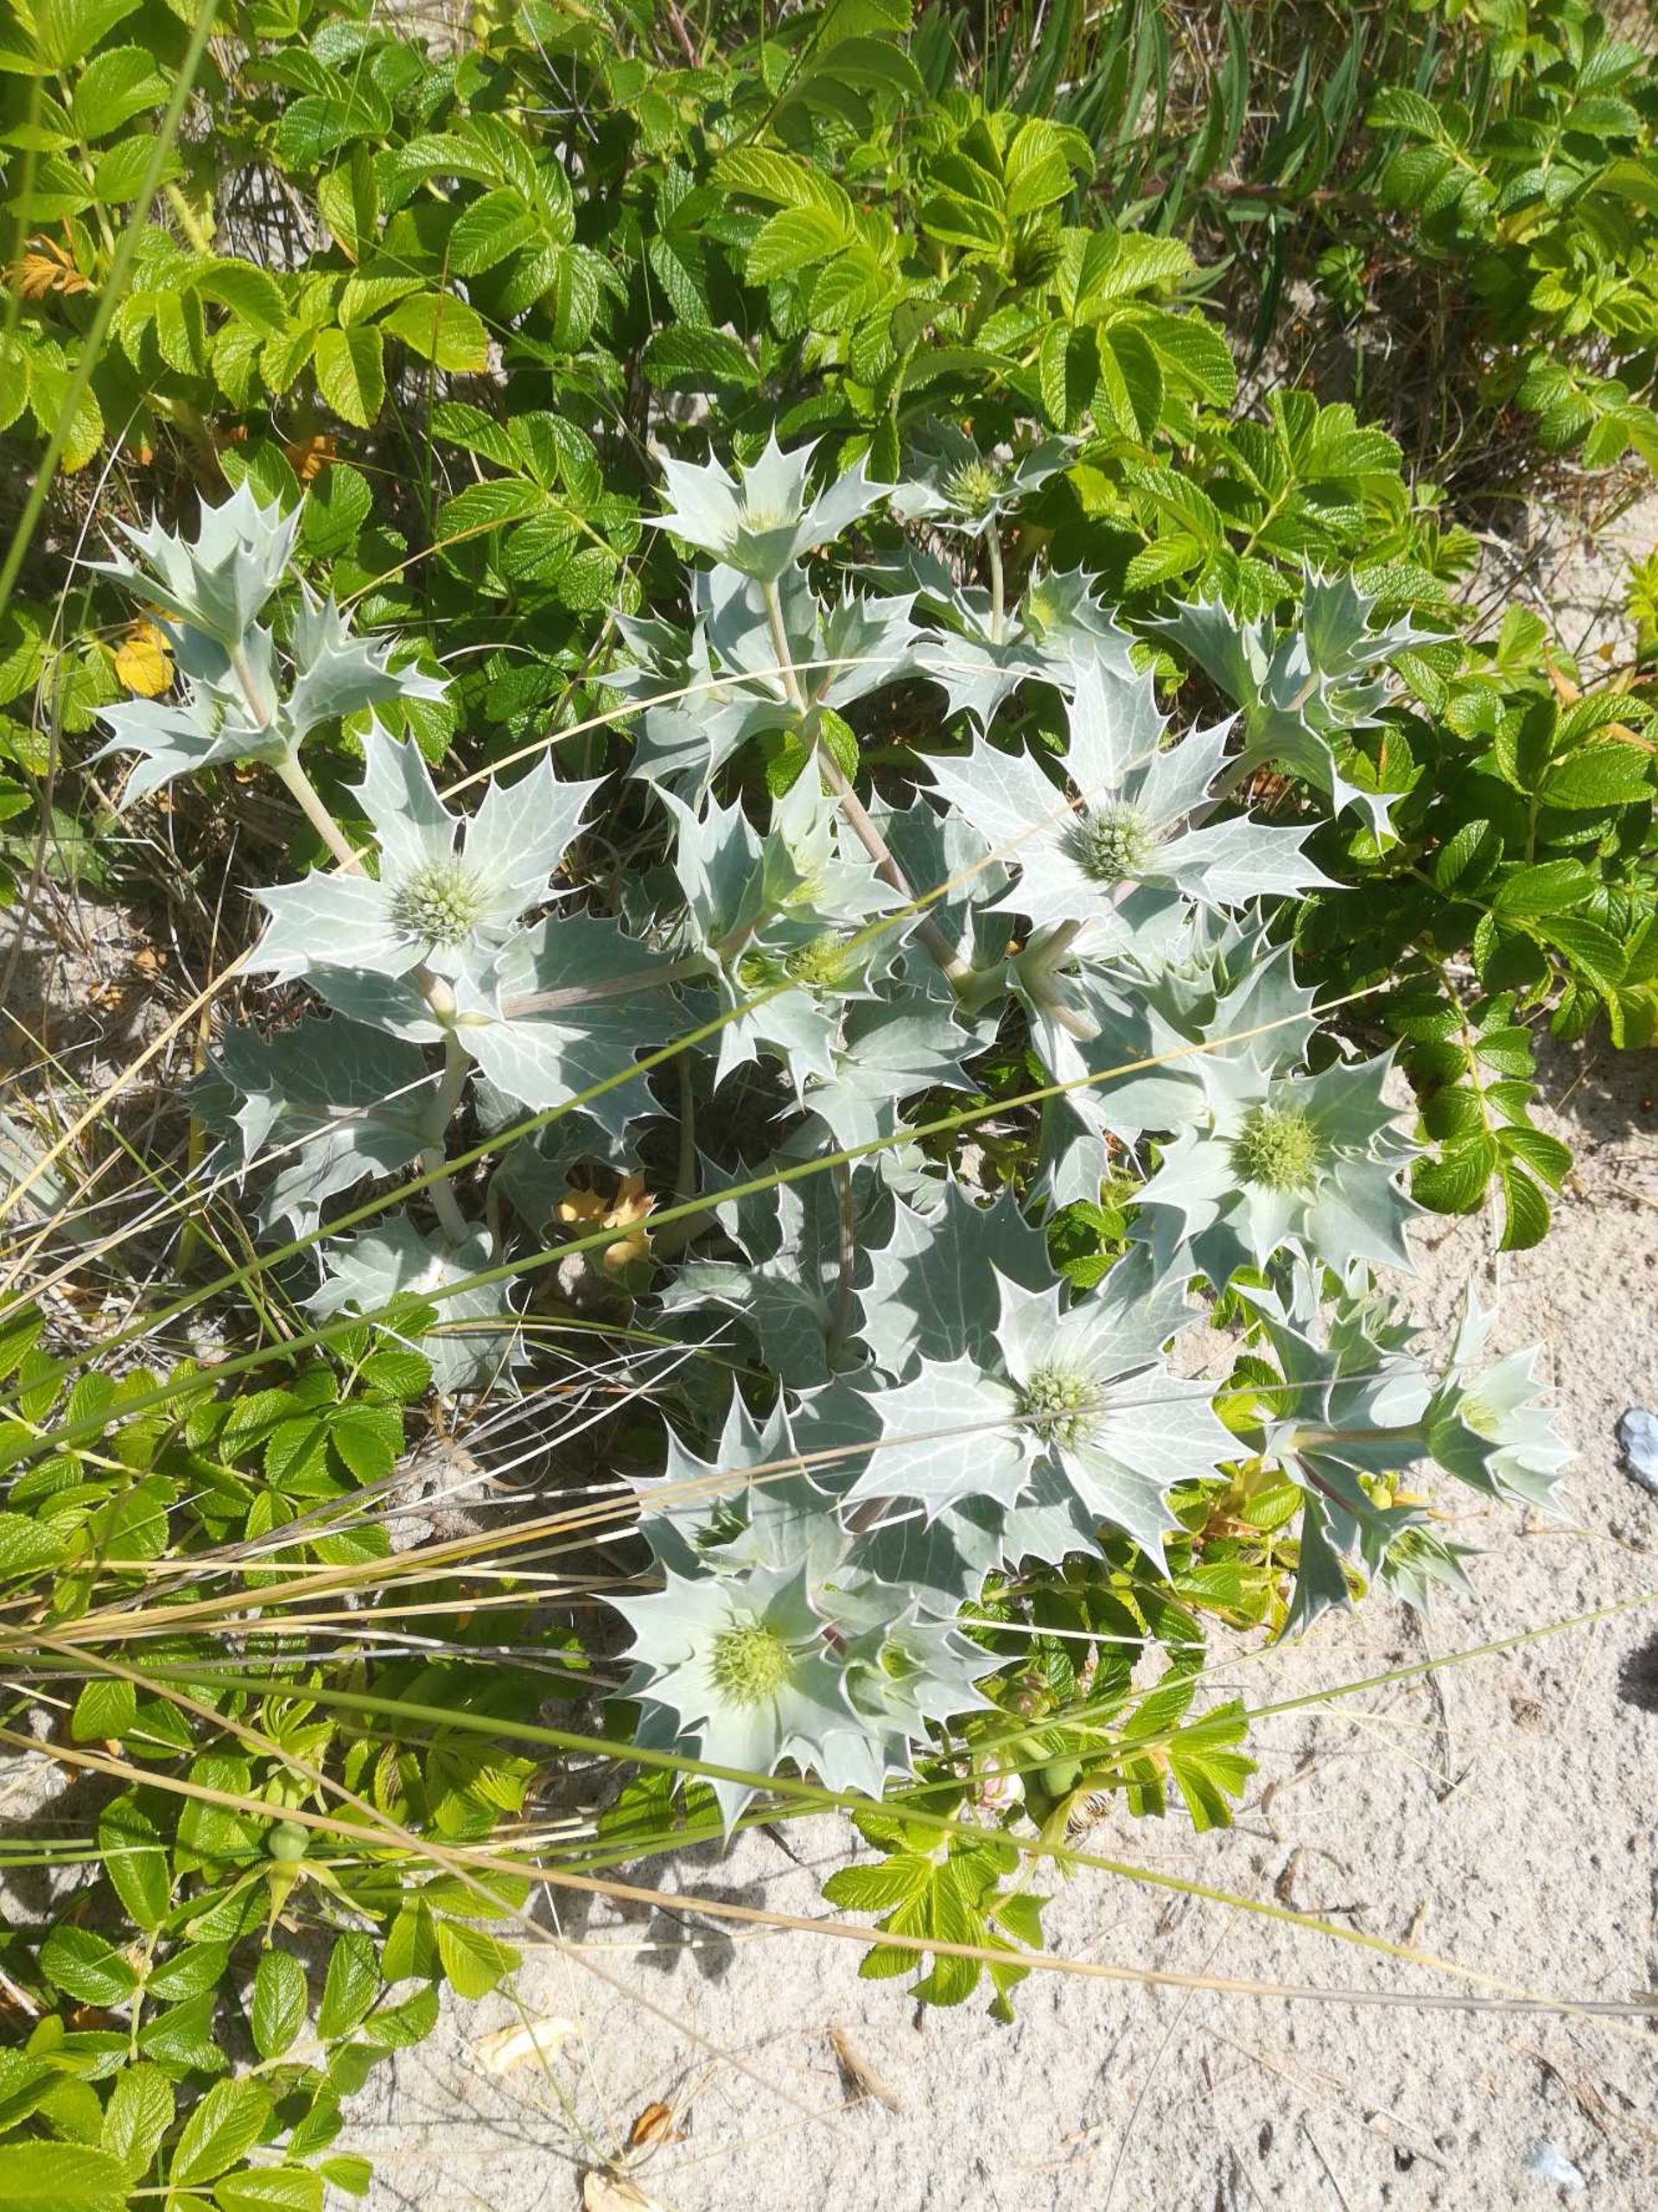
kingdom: Plantae
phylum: Tracheophyta
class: Magnoliopsida
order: Apiales
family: Apiaceae
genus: Eryngium
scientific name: Eryngium maritimum
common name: Strand-mandstro
